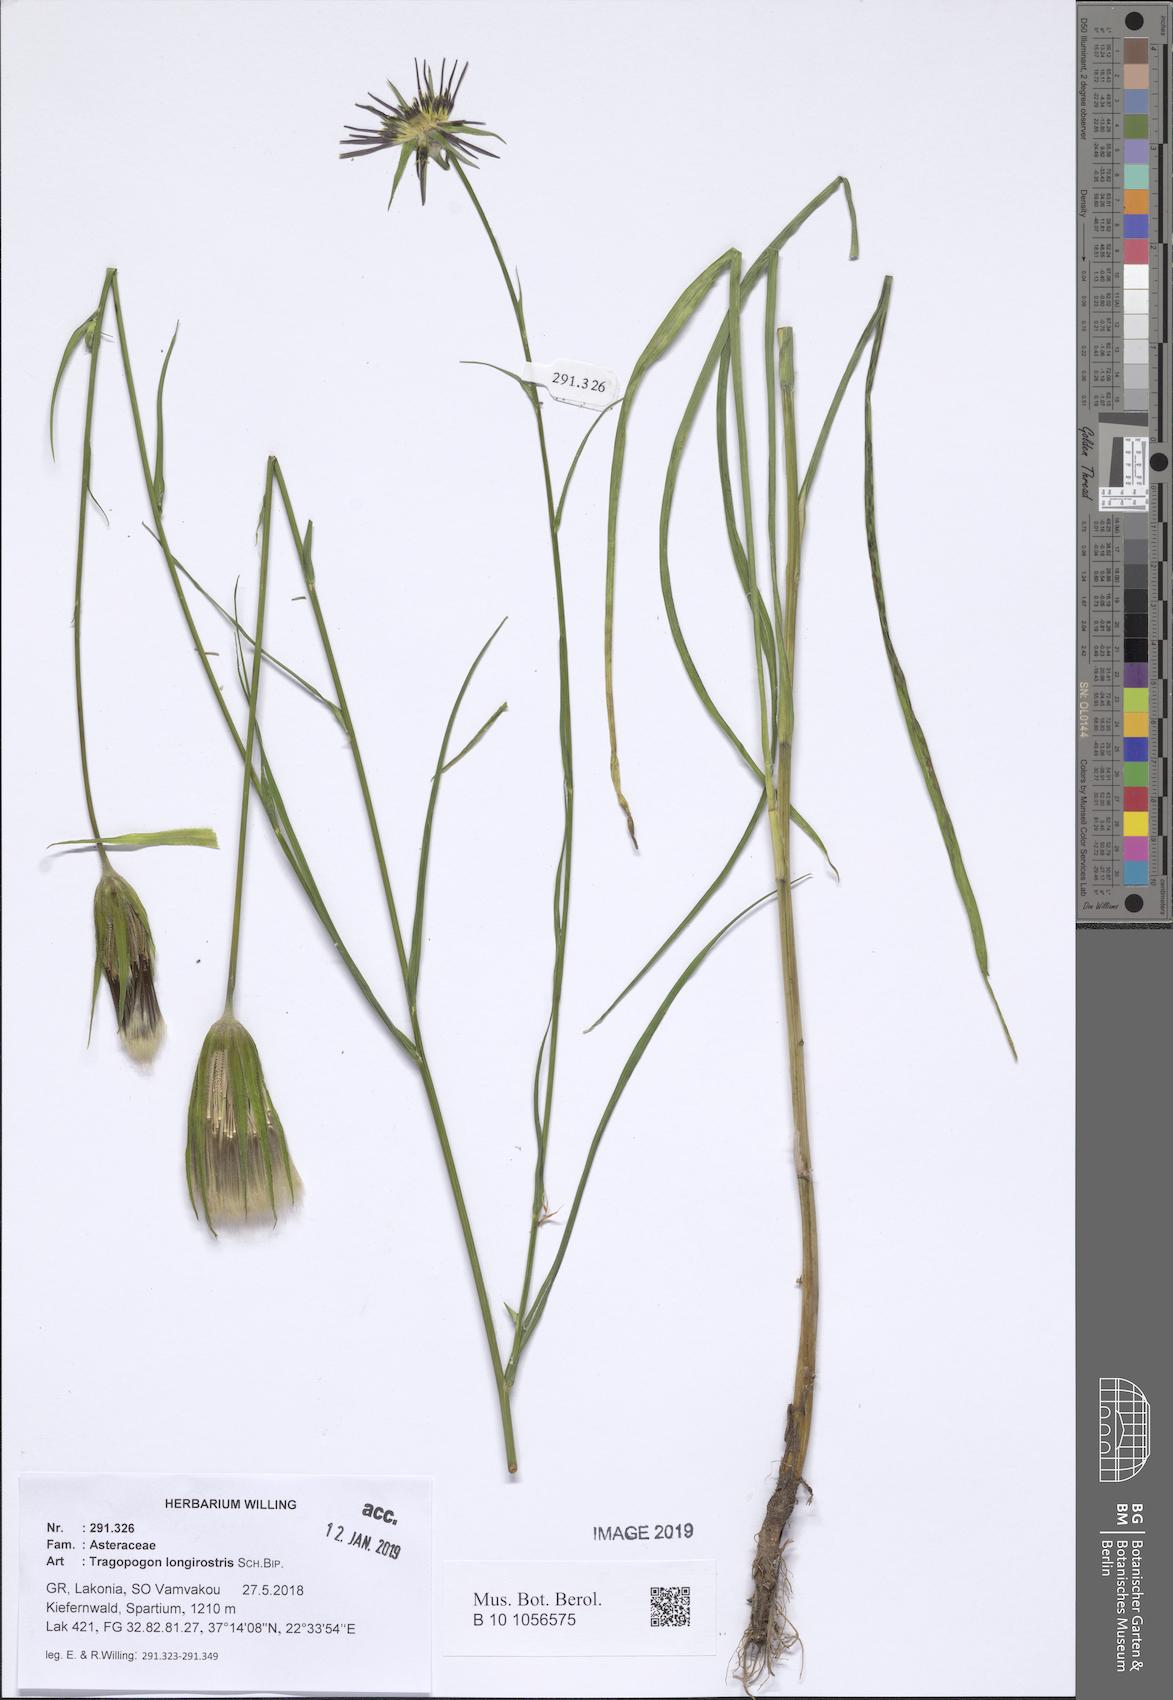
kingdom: Plantae
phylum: Tracheophyta
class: Magnoliopsida
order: Asterales
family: Asteraceae
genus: Tragopogon
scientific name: Tragopogon coelesyriacus
